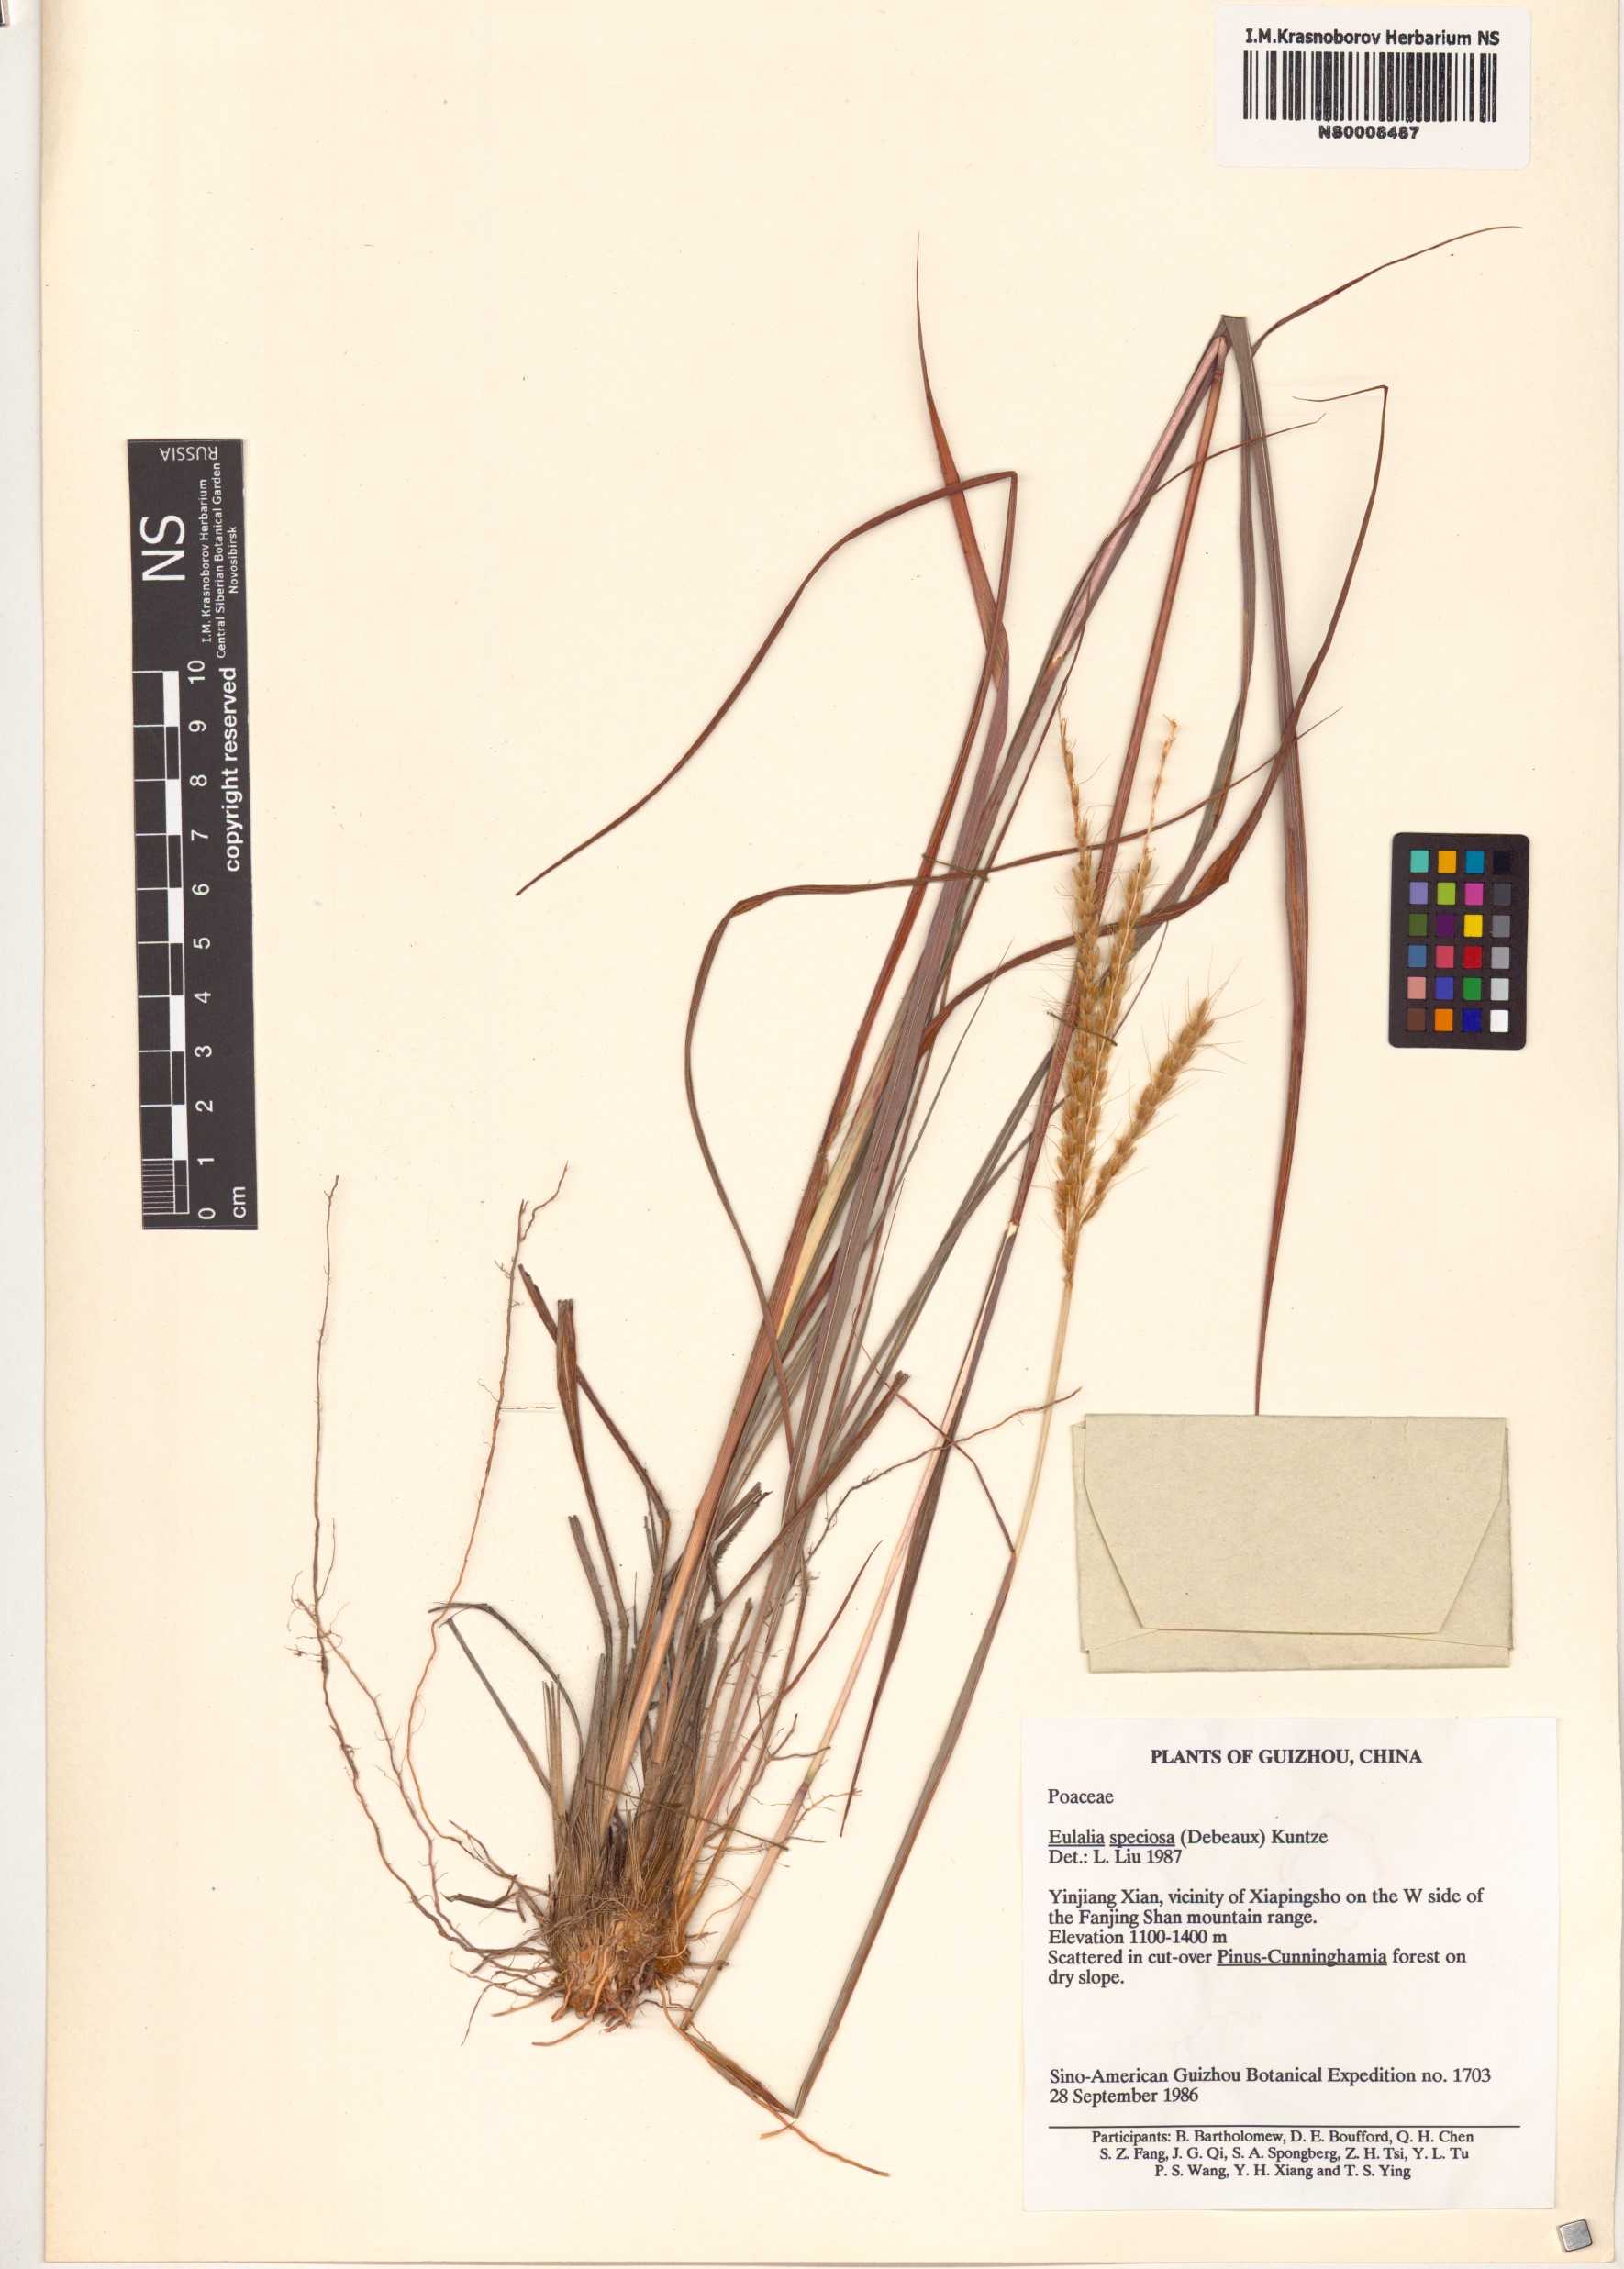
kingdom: Plantae
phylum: Tracheophyta
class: Liliopsida
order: Poales
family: Poaceae
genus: Pseudopogonatherum
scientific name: Pseudopogonatherum speciosum
